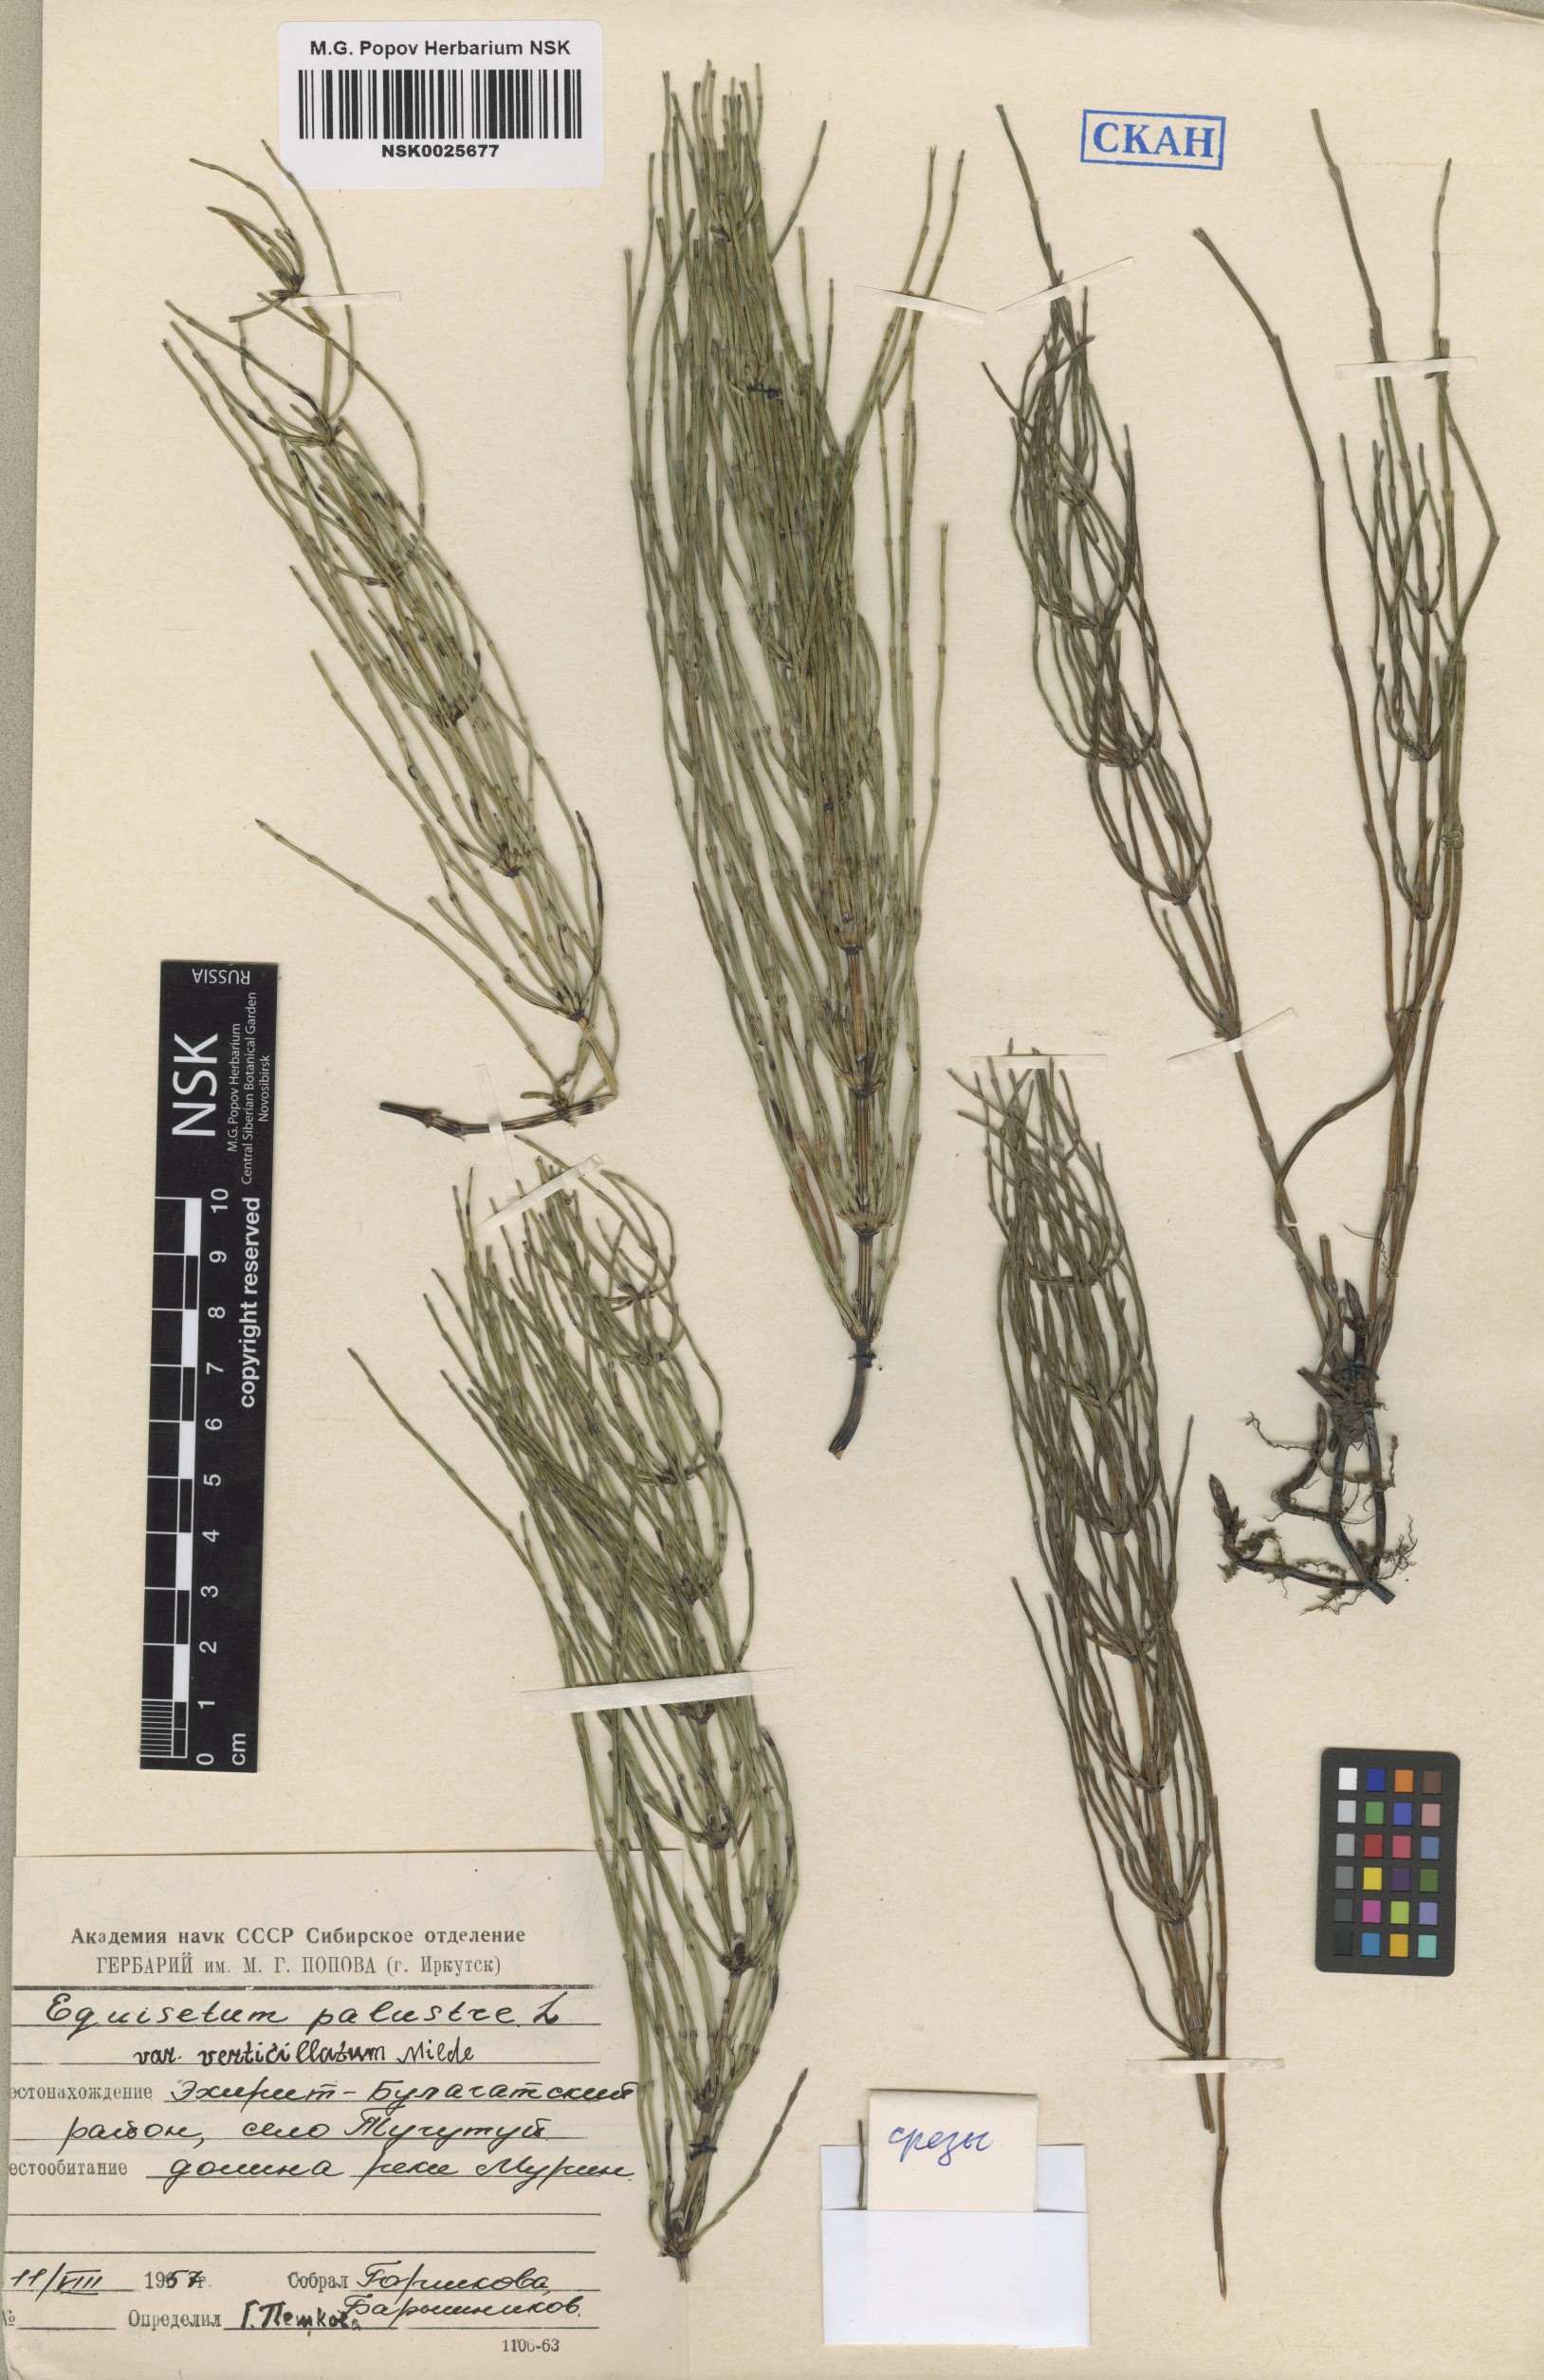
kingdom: Plantae
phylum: Tracheophyta
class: Polypodiopsida
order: Equisetales
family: Equisetaceae
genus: Equisetum
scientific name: Equisetum palustre
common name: Marsh horsetail
